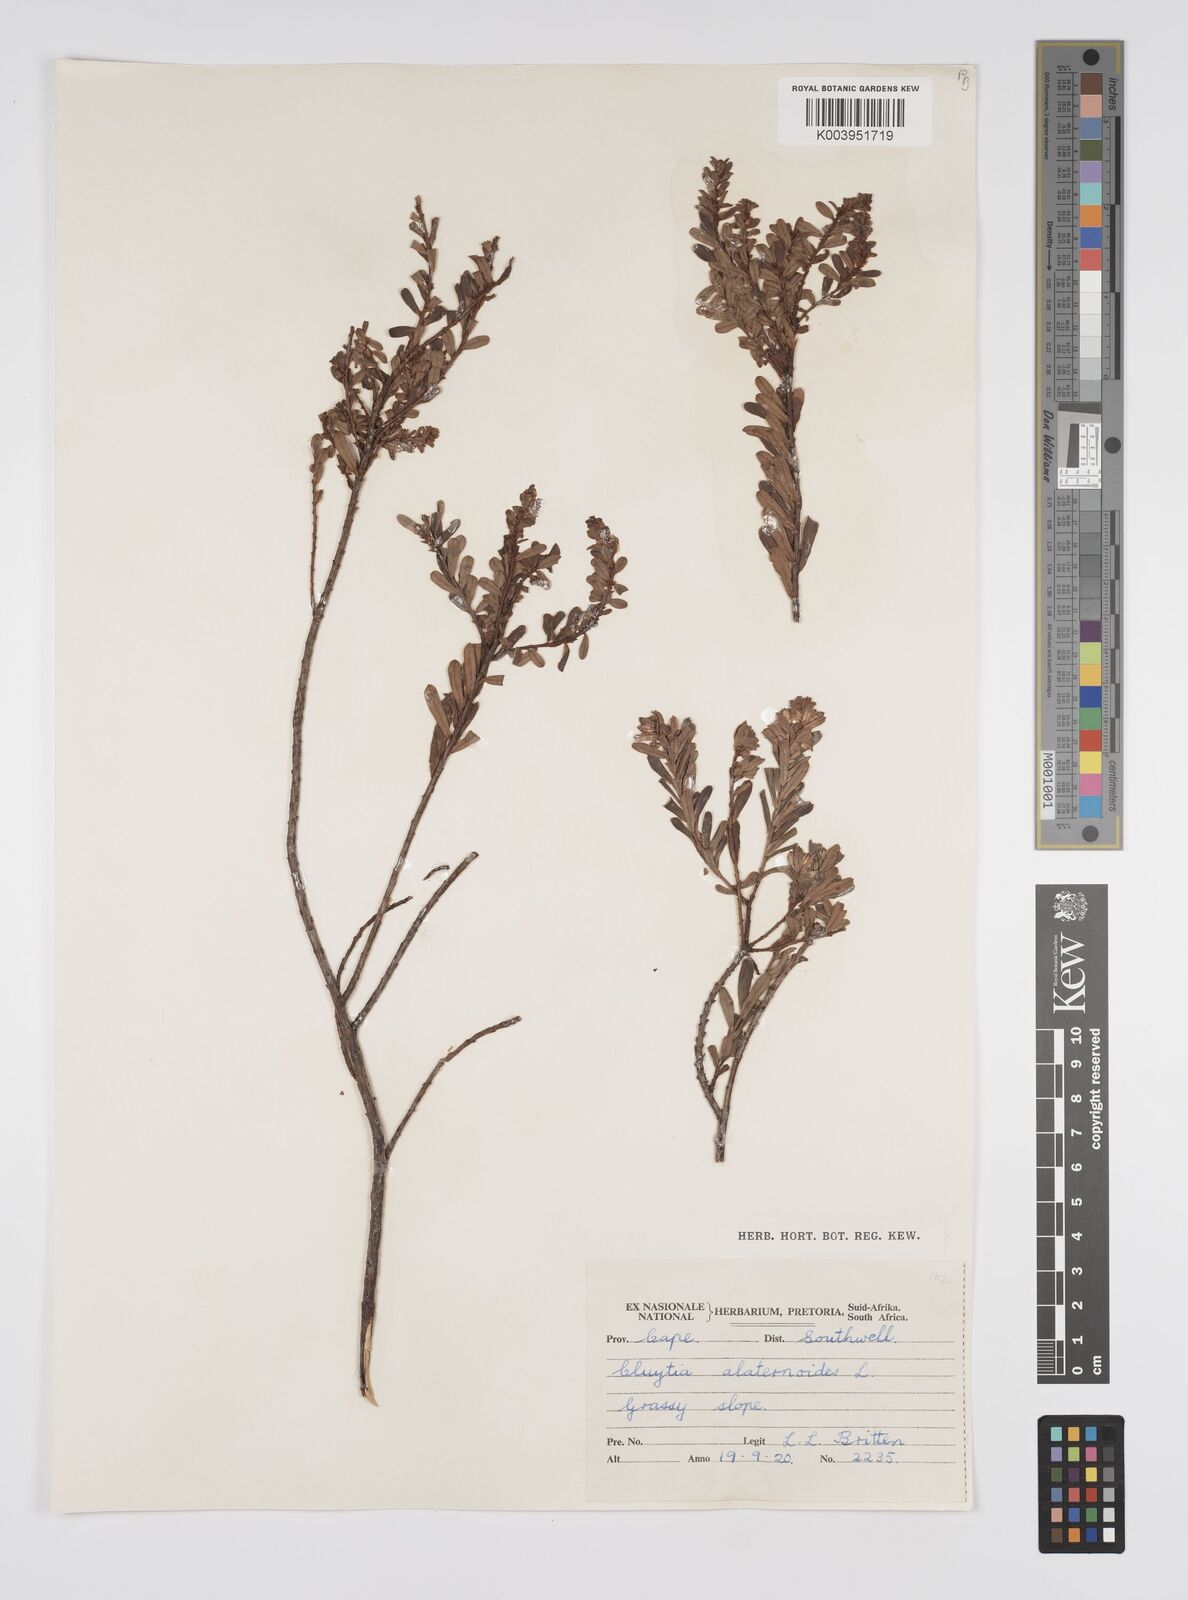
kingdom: Plantae
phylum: Tracheophyta
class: Magnoliopsida
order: Malpighiales
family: Peraceae
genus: Clutia
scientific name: Clutia alaternoides
